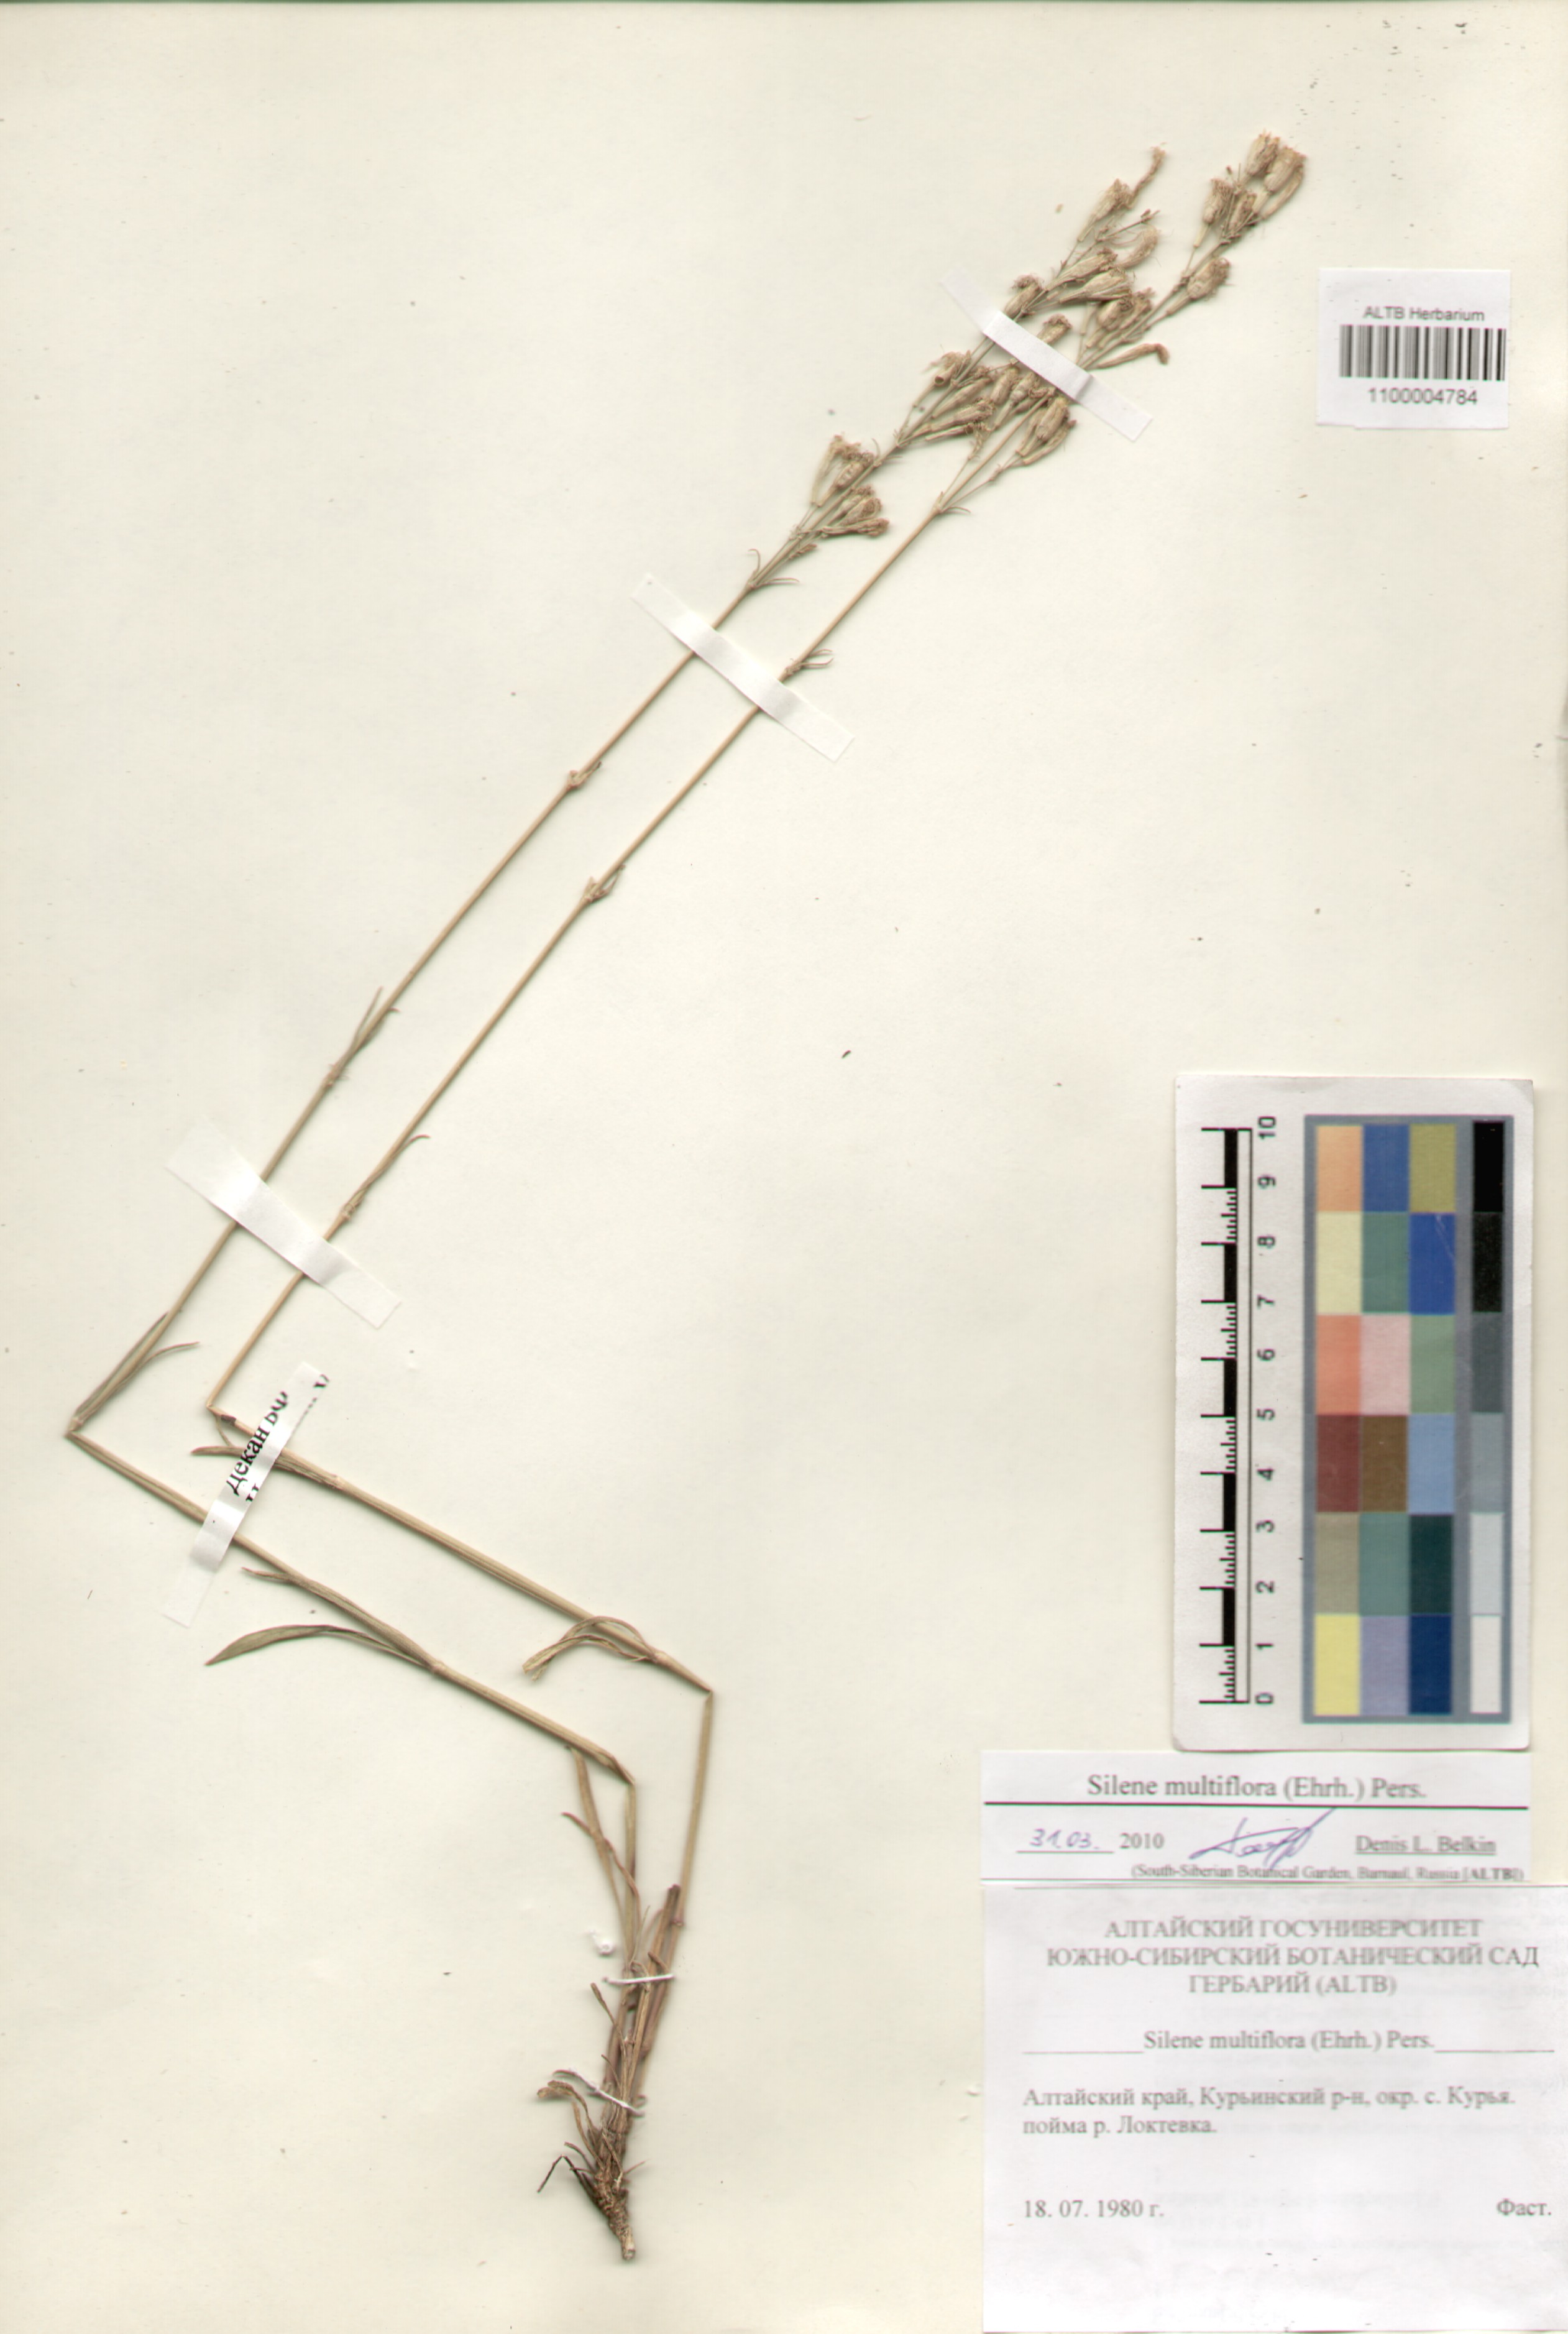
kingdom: Plantae
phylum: Tracheophyta
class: Magnoliopsida
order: Caryophyllales
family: Caryophyllaceae
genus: Silene
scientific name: Silene multiflora
